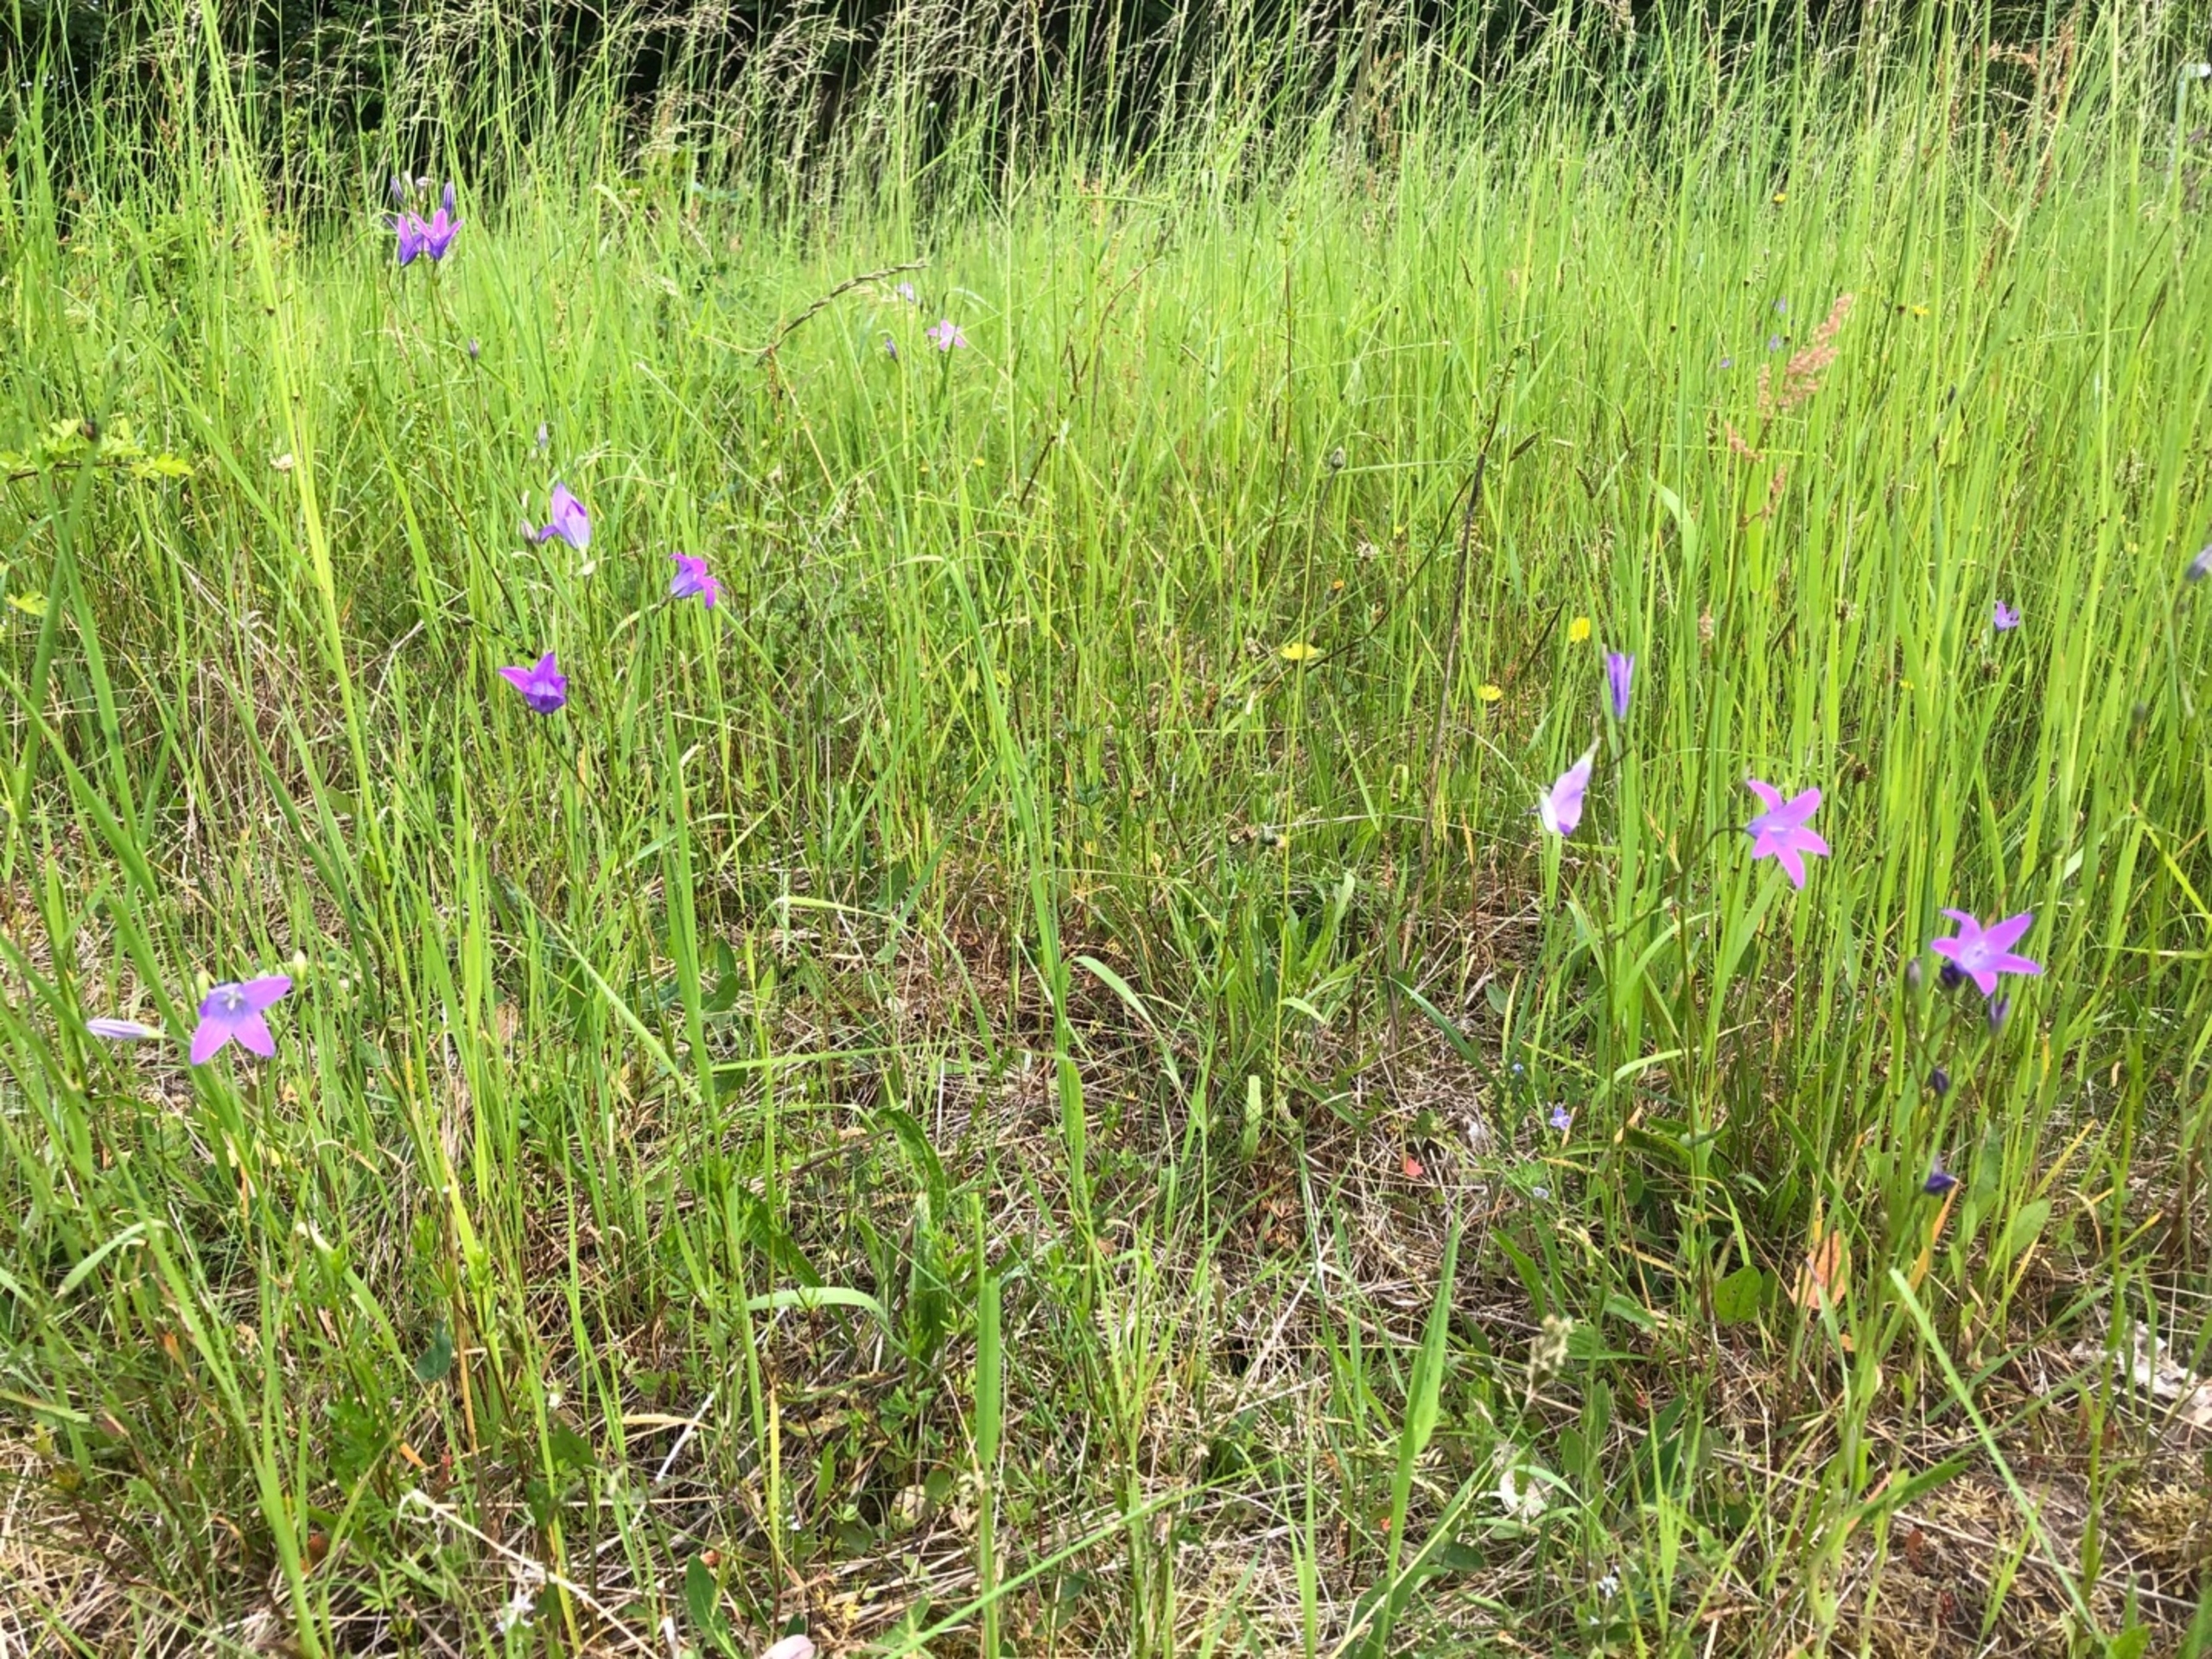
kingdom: Plantae
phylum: Tracheophyta
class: Magnoliopsida
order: Asterales
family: Campanulaceae
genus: Campanula
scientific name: Campanula patula
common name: Eng-klokke
